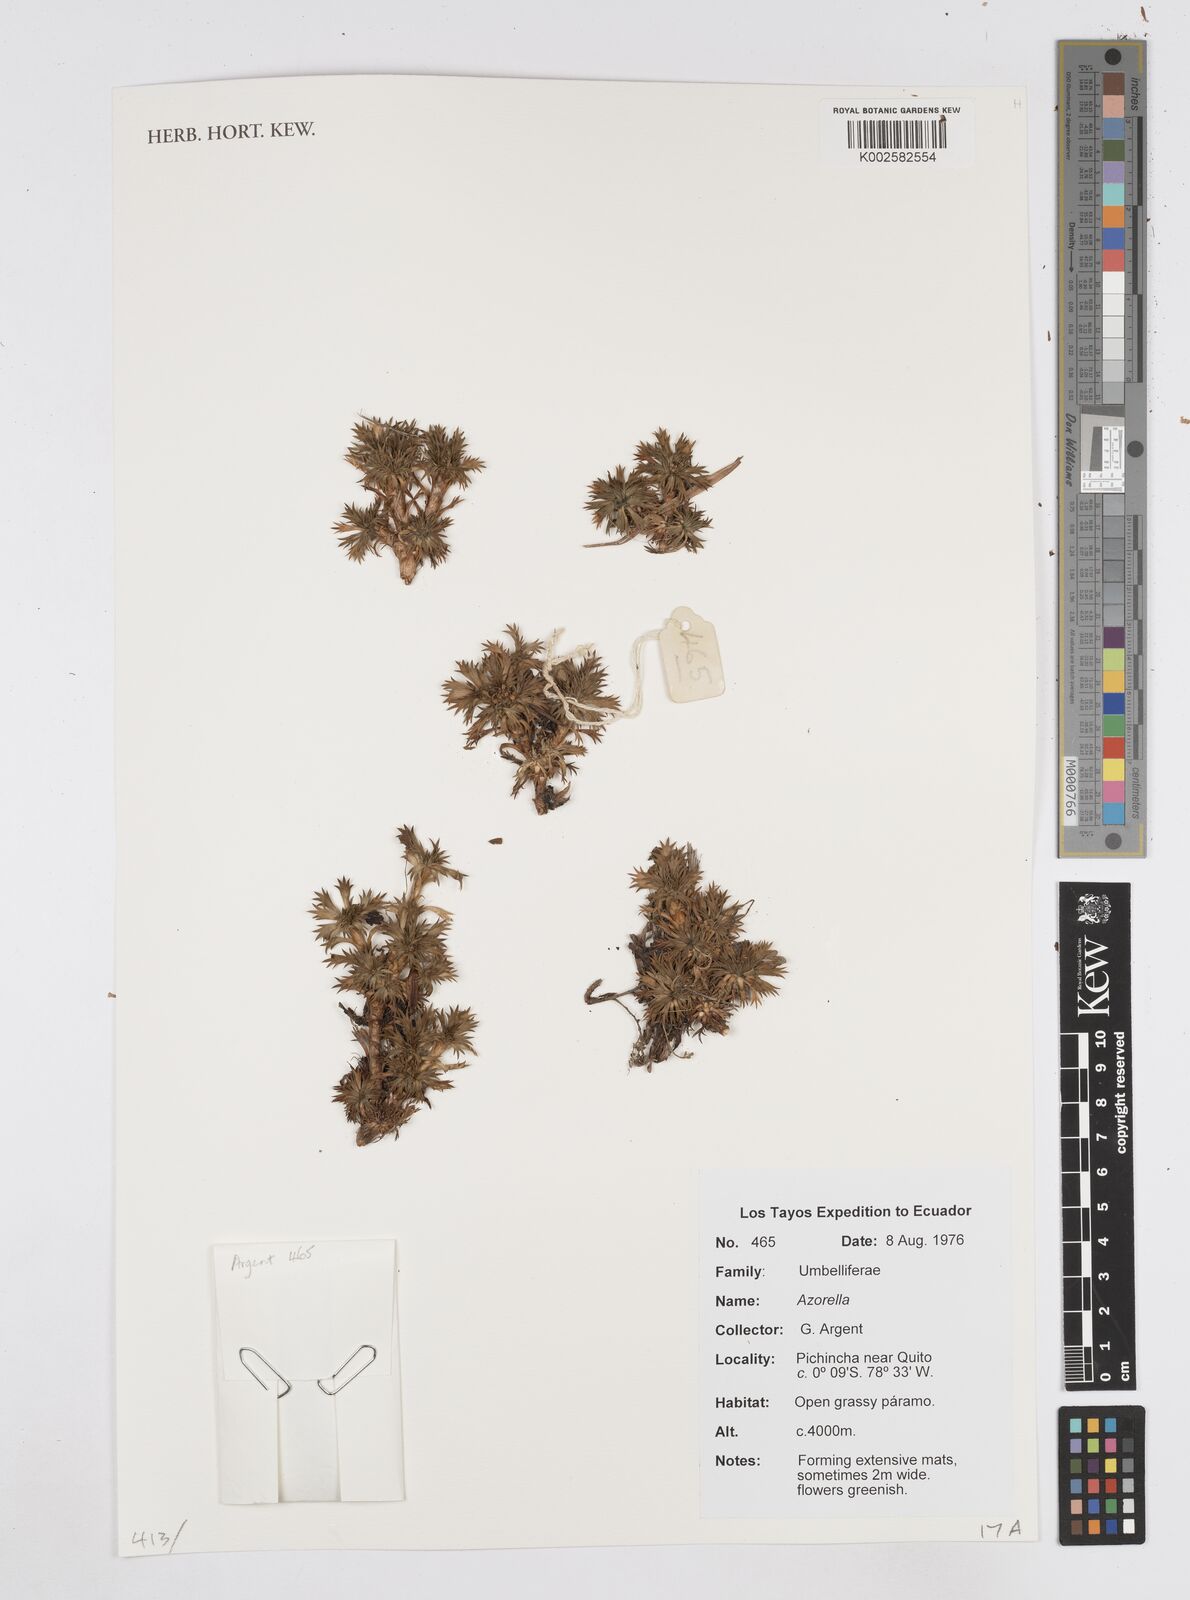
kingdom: Plantae
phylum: Tracheophyta
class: Magnoliopsida
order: Apiales
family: Apiaceae
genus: Azorella
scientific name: Azorella
